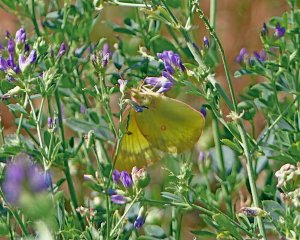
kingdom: Animalia
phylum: Arthropoda
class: Insecta
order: Lepidoptera
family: Pieridae
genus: Colias
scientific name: Colias philodice
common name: Clouded Sulphur
